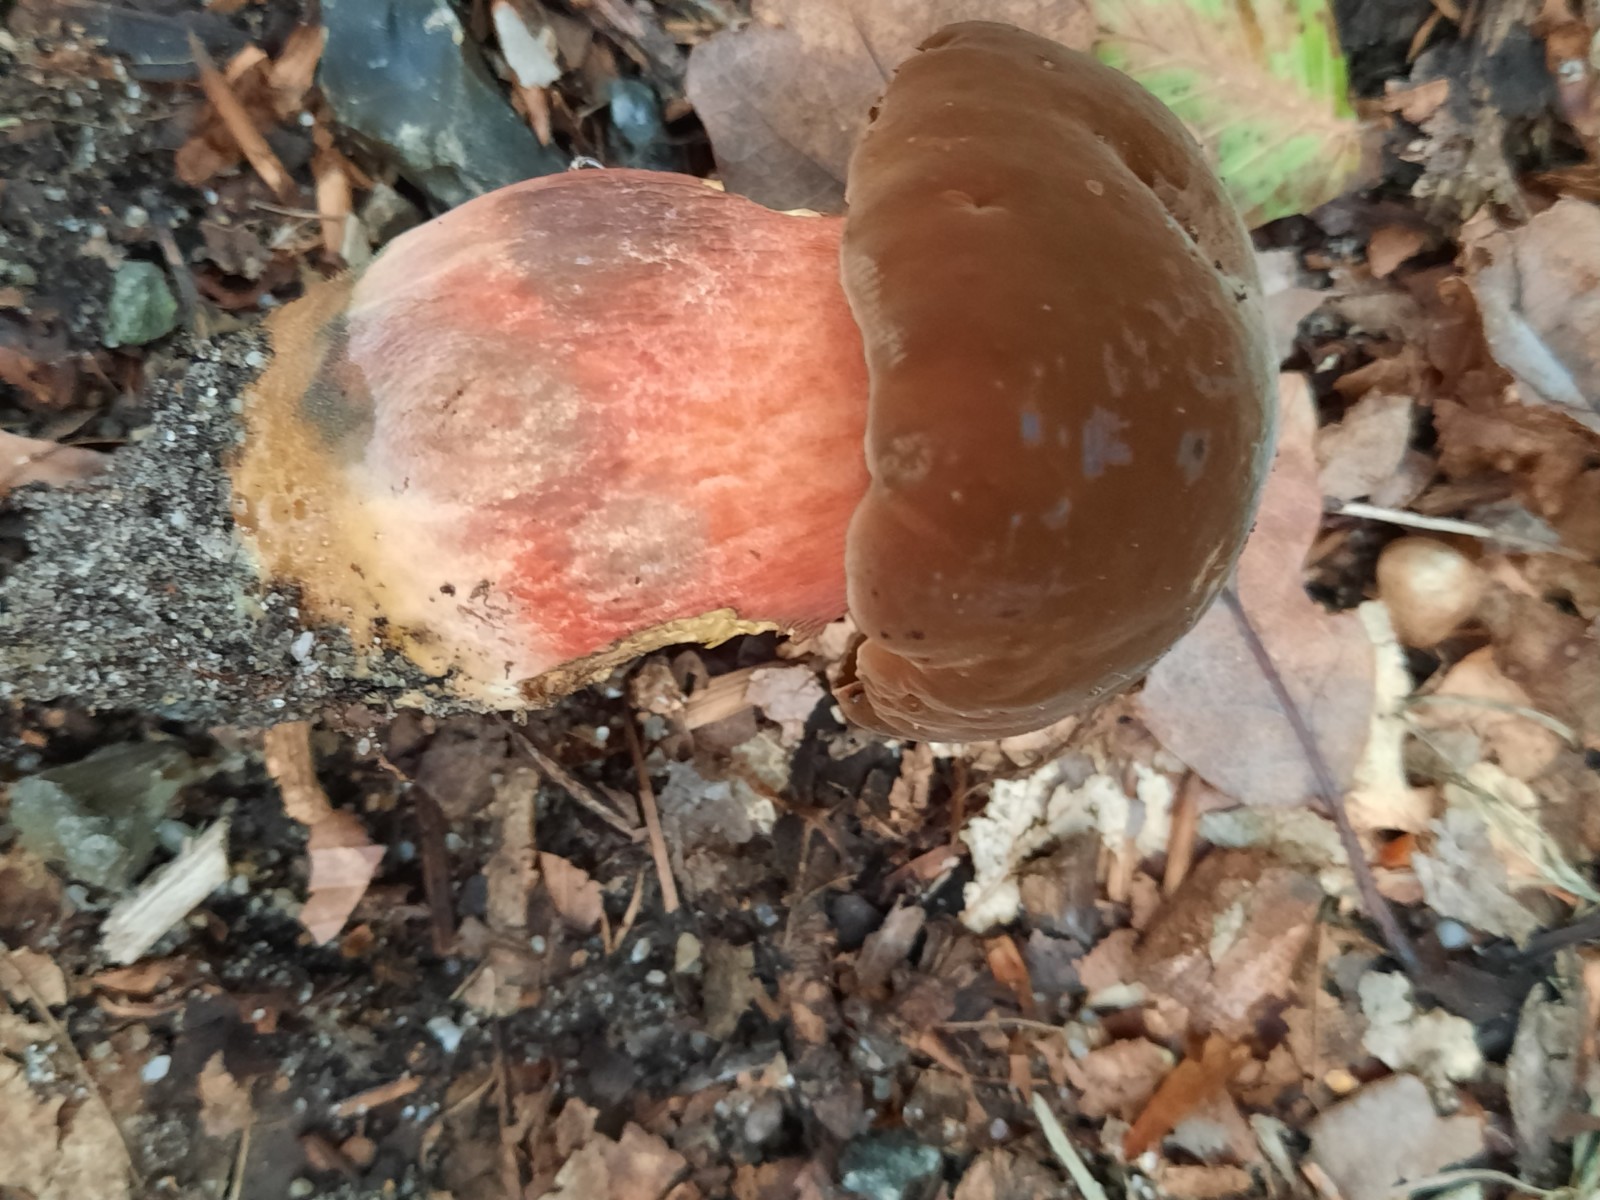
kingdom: Fungi
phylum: Basidiomycota
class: Agaricomycetes
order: Boletales
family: Boletaceae
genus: Neoboletus
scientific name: Neoboletus erythropus
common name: punktstokket indigorørhat
